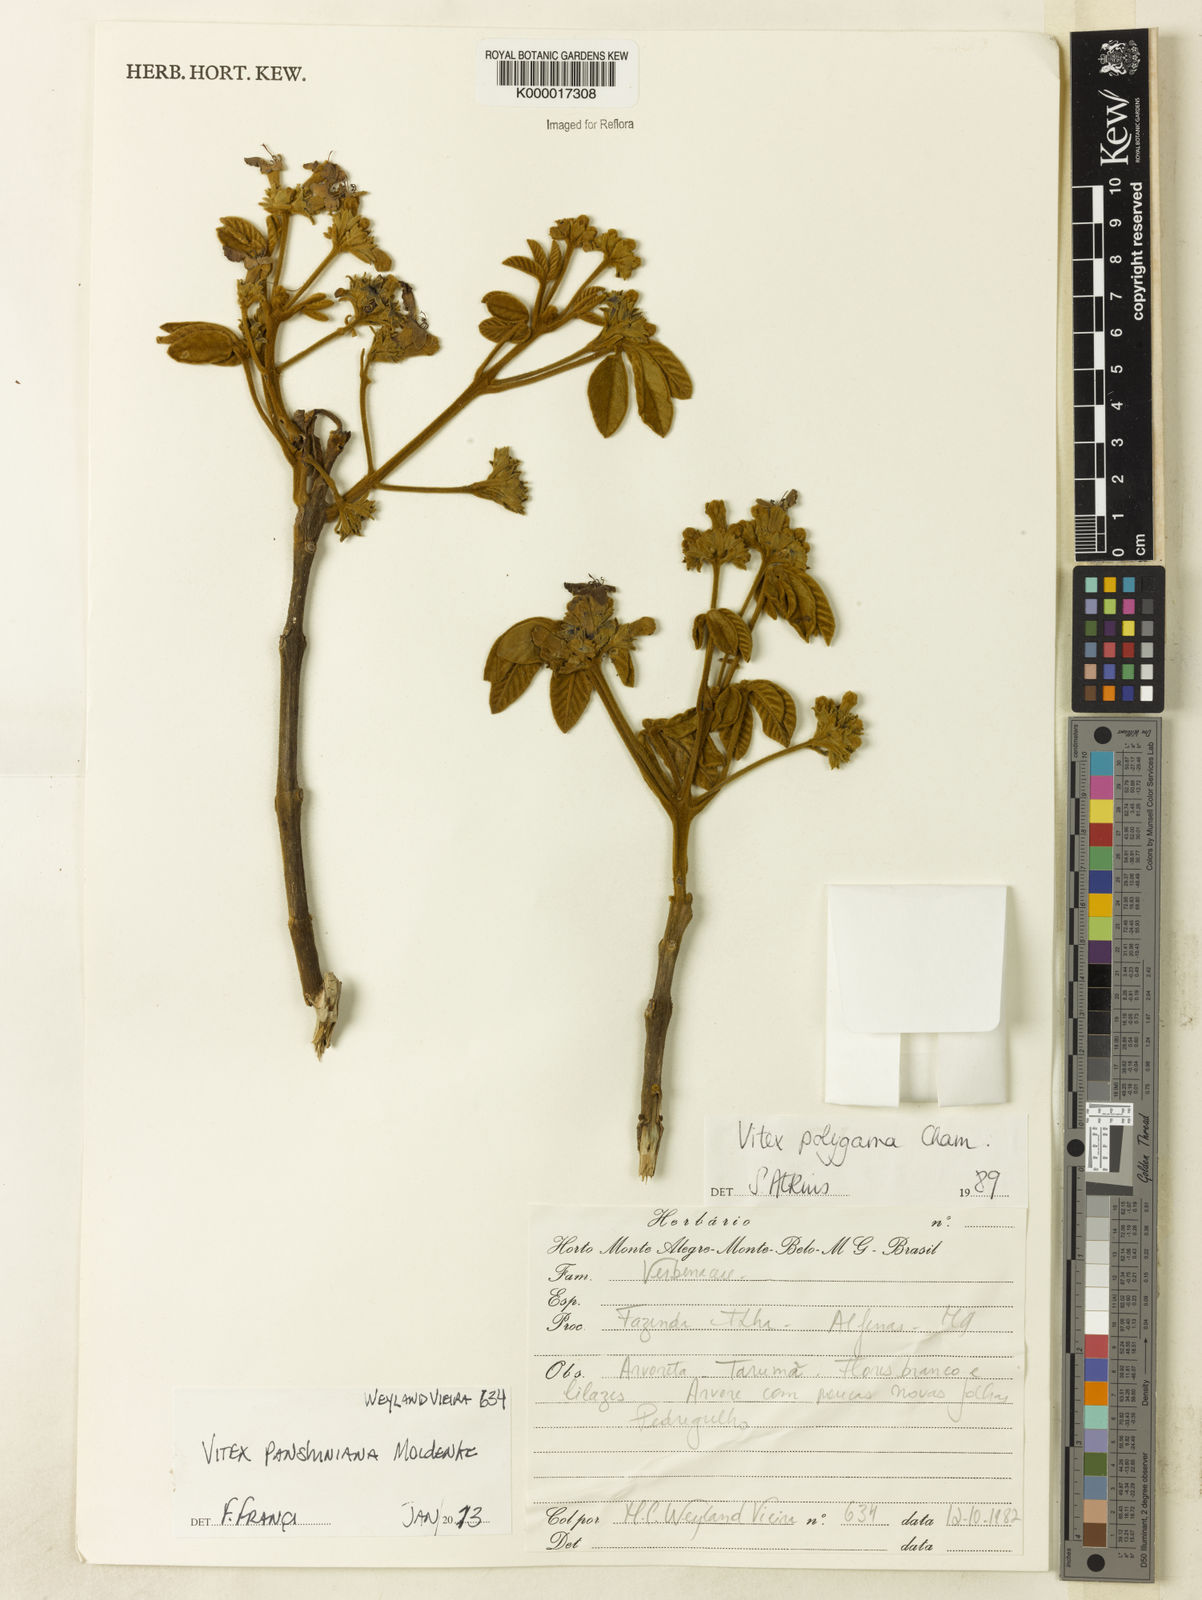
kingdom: Plantae
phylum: Tracheophyta
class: Magnoliopsida
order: Lamiales
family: Lamiaceae
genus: Vitex
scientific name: Vitex panshiniana
